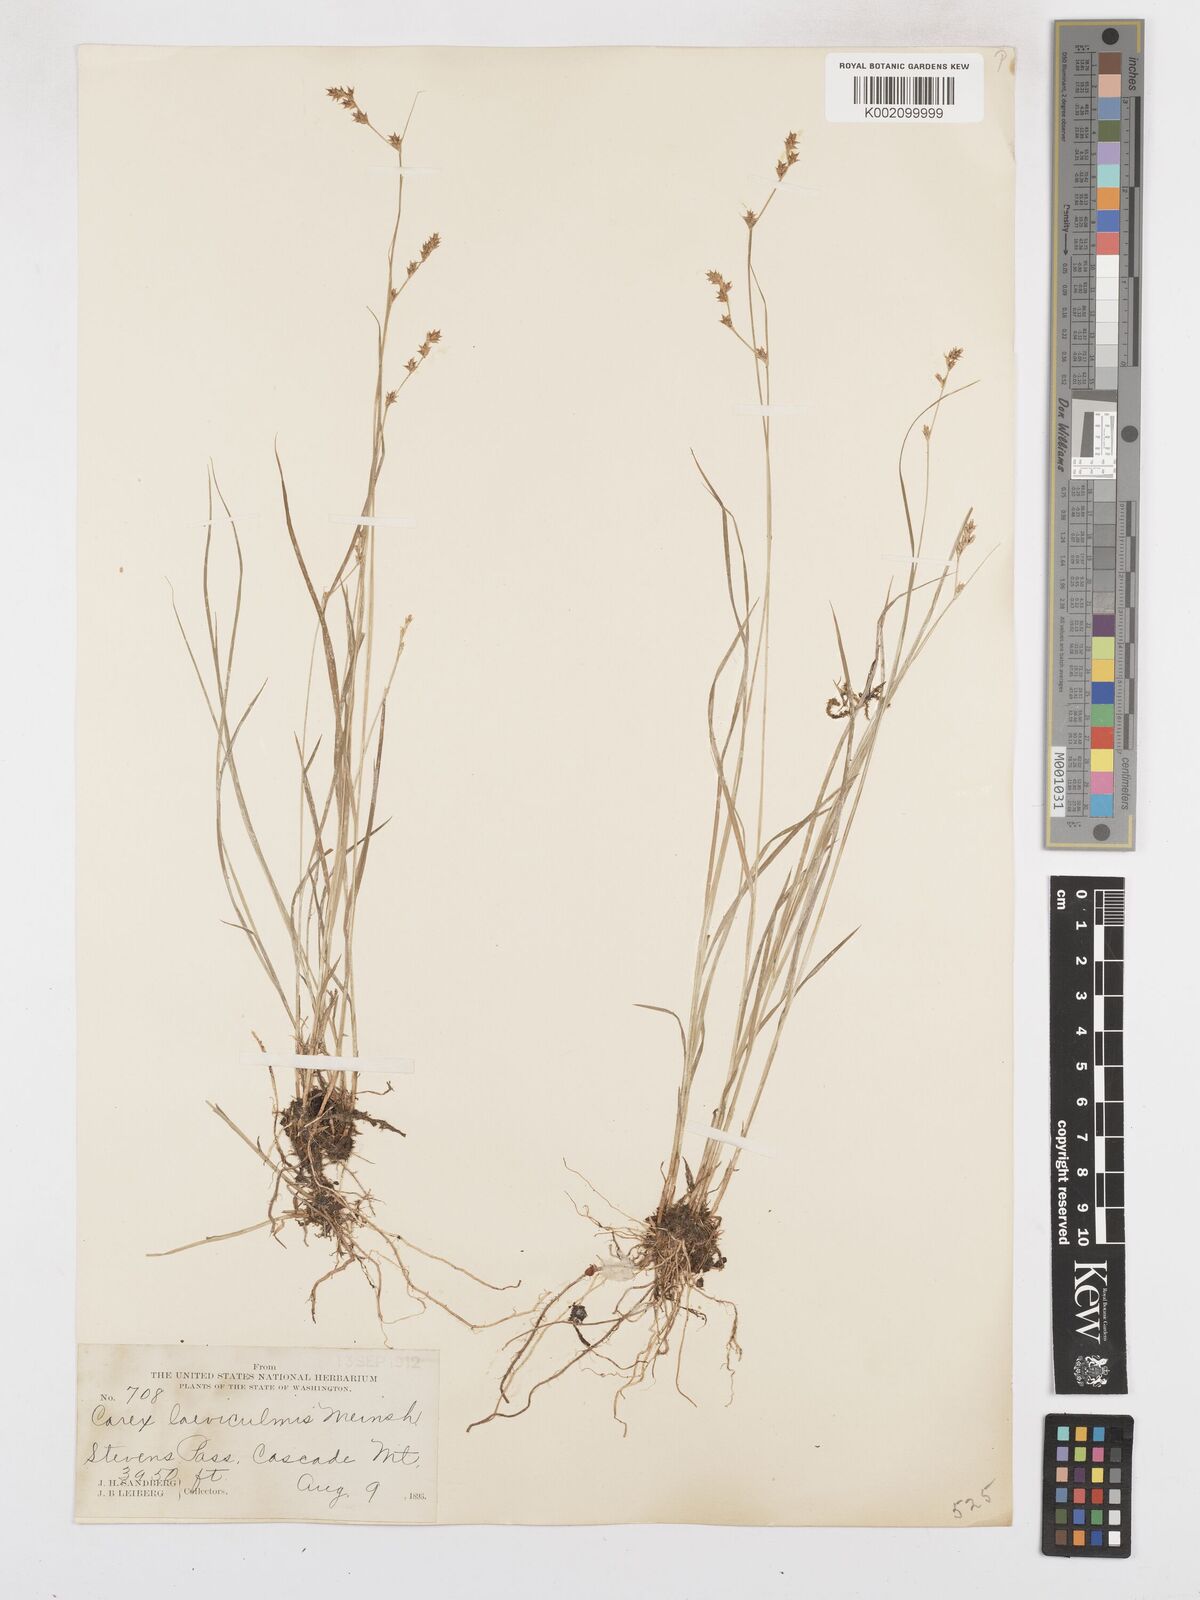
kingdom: Plantae
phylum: Tracheophyta
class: Liliopsida
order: Poales
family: Cyperaceae
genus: Carex
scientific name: Carex laeviculmis
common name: Smooth sedge
